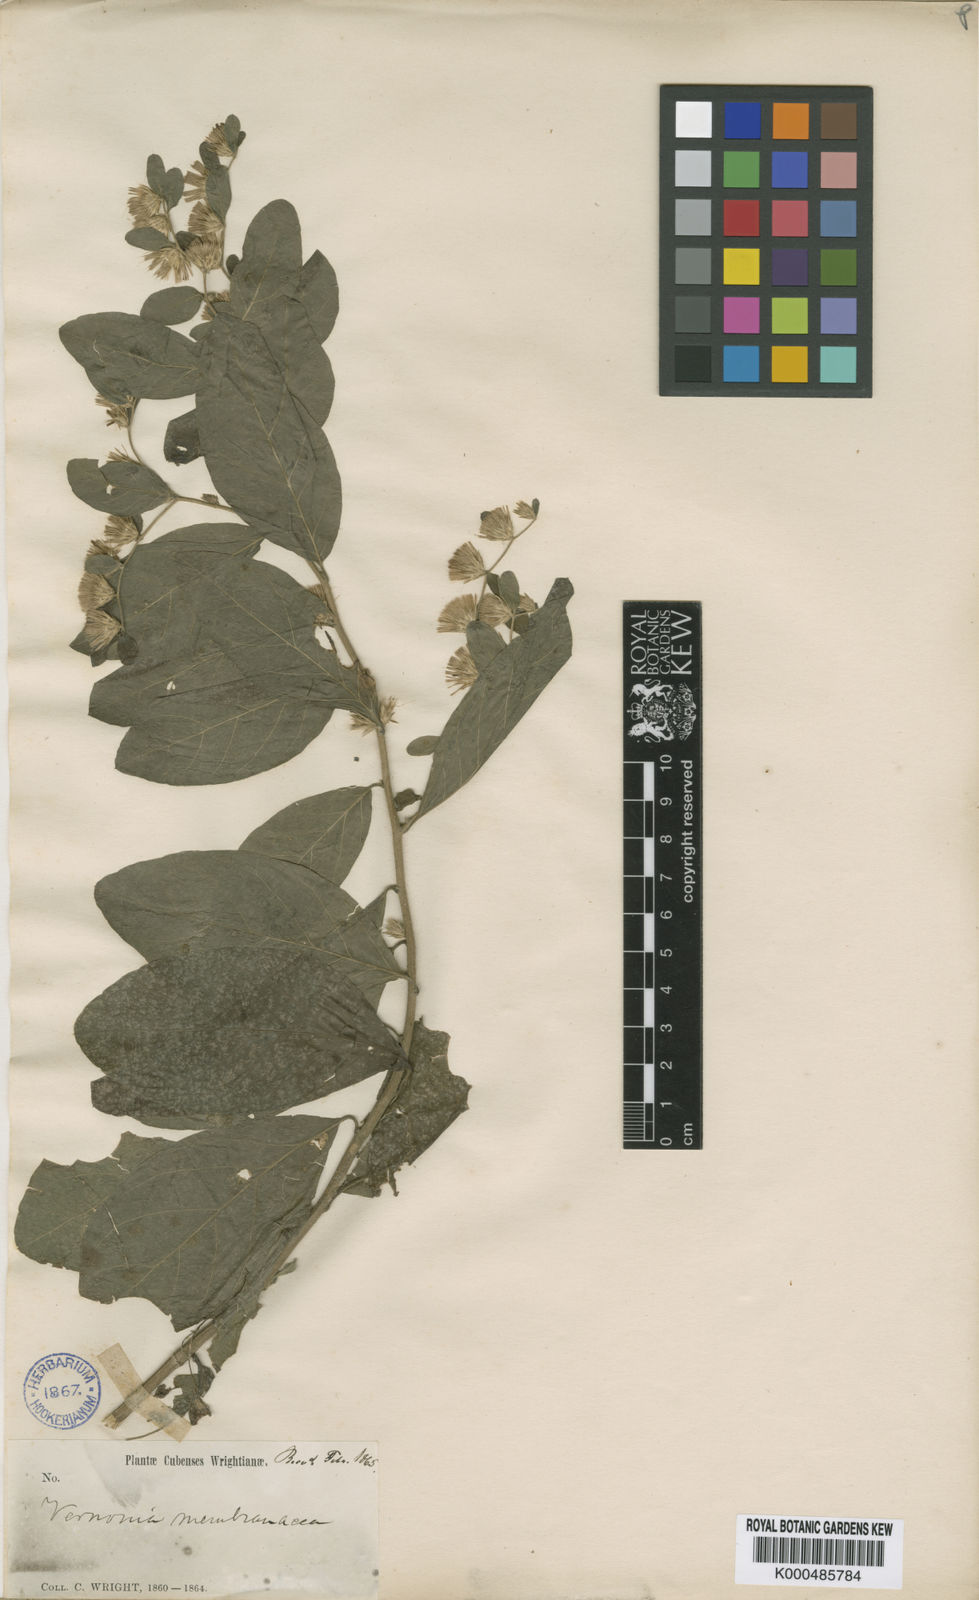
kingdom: Plantae
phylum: Tracheophyta
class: Magnoliopsida
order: Asterales
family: Asteraceae
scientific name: Asteraceae
